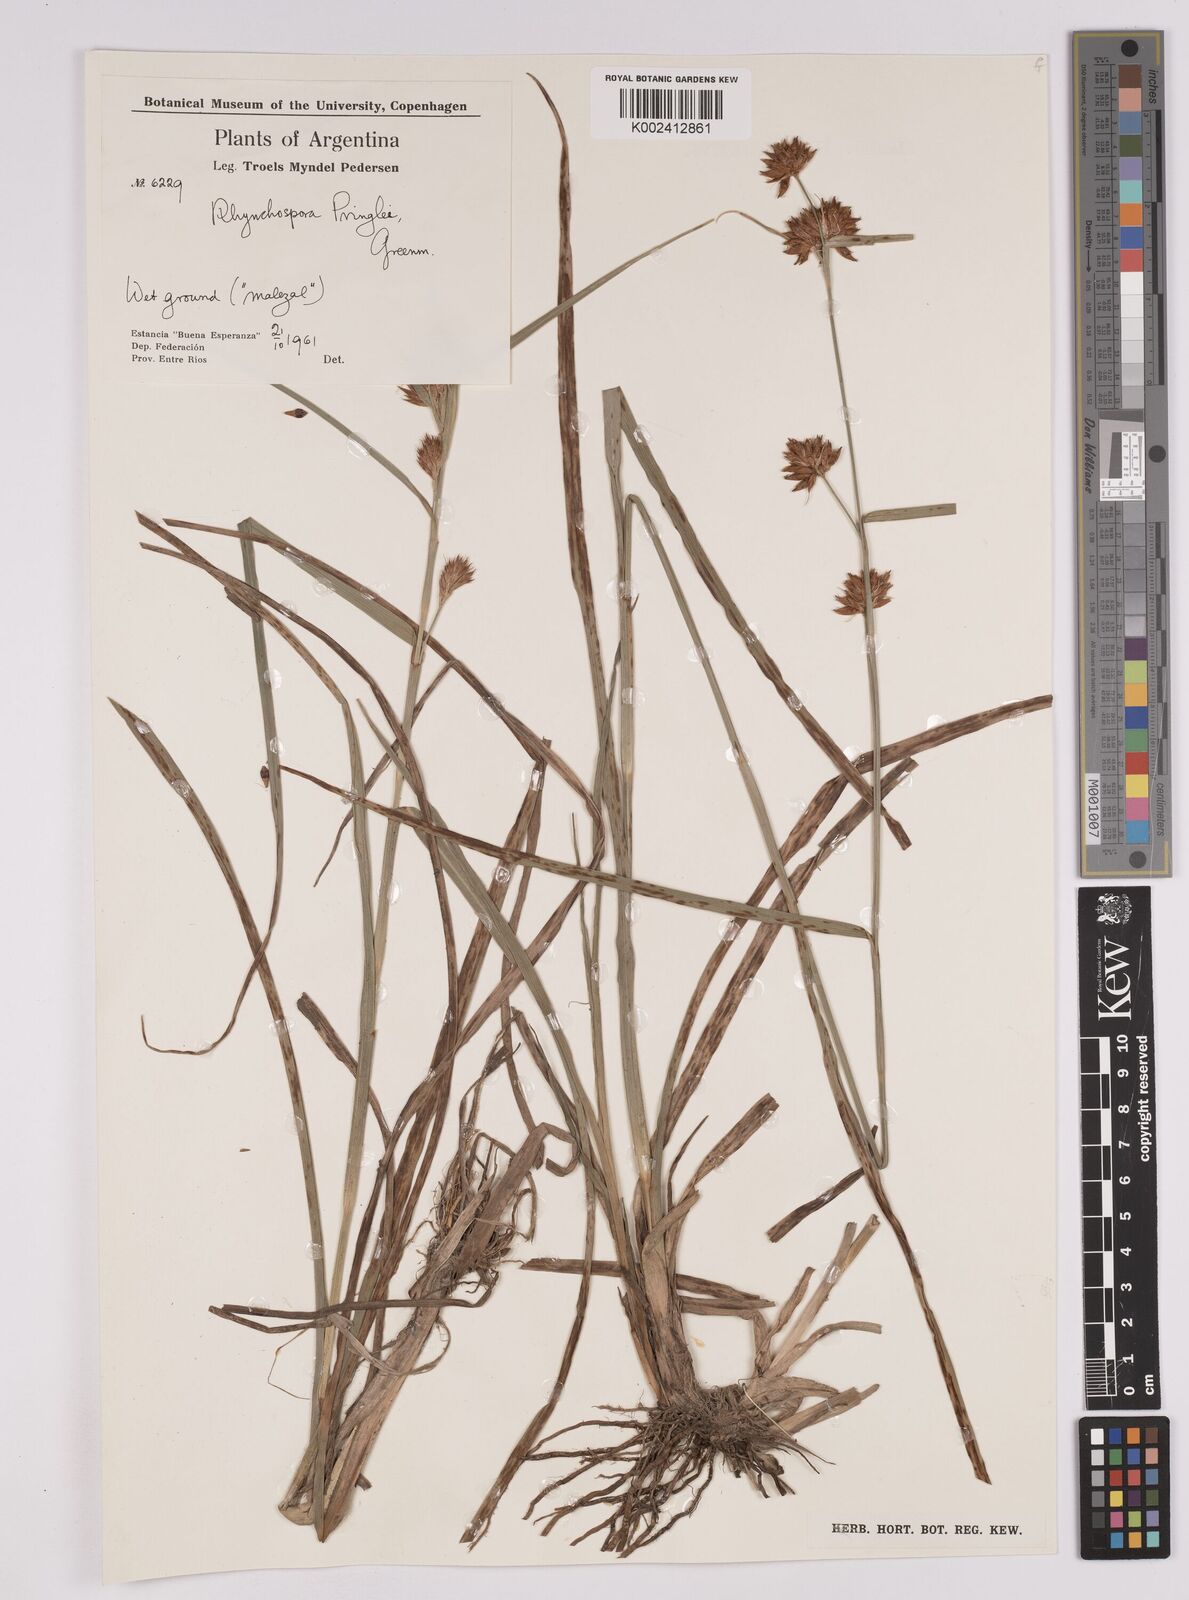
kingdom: Plantae
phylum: Tracheophyta
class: Liliopsida
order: Poales
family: Cyperaceae
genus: Rhynchospora
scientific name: Rhynchospora scutellata
